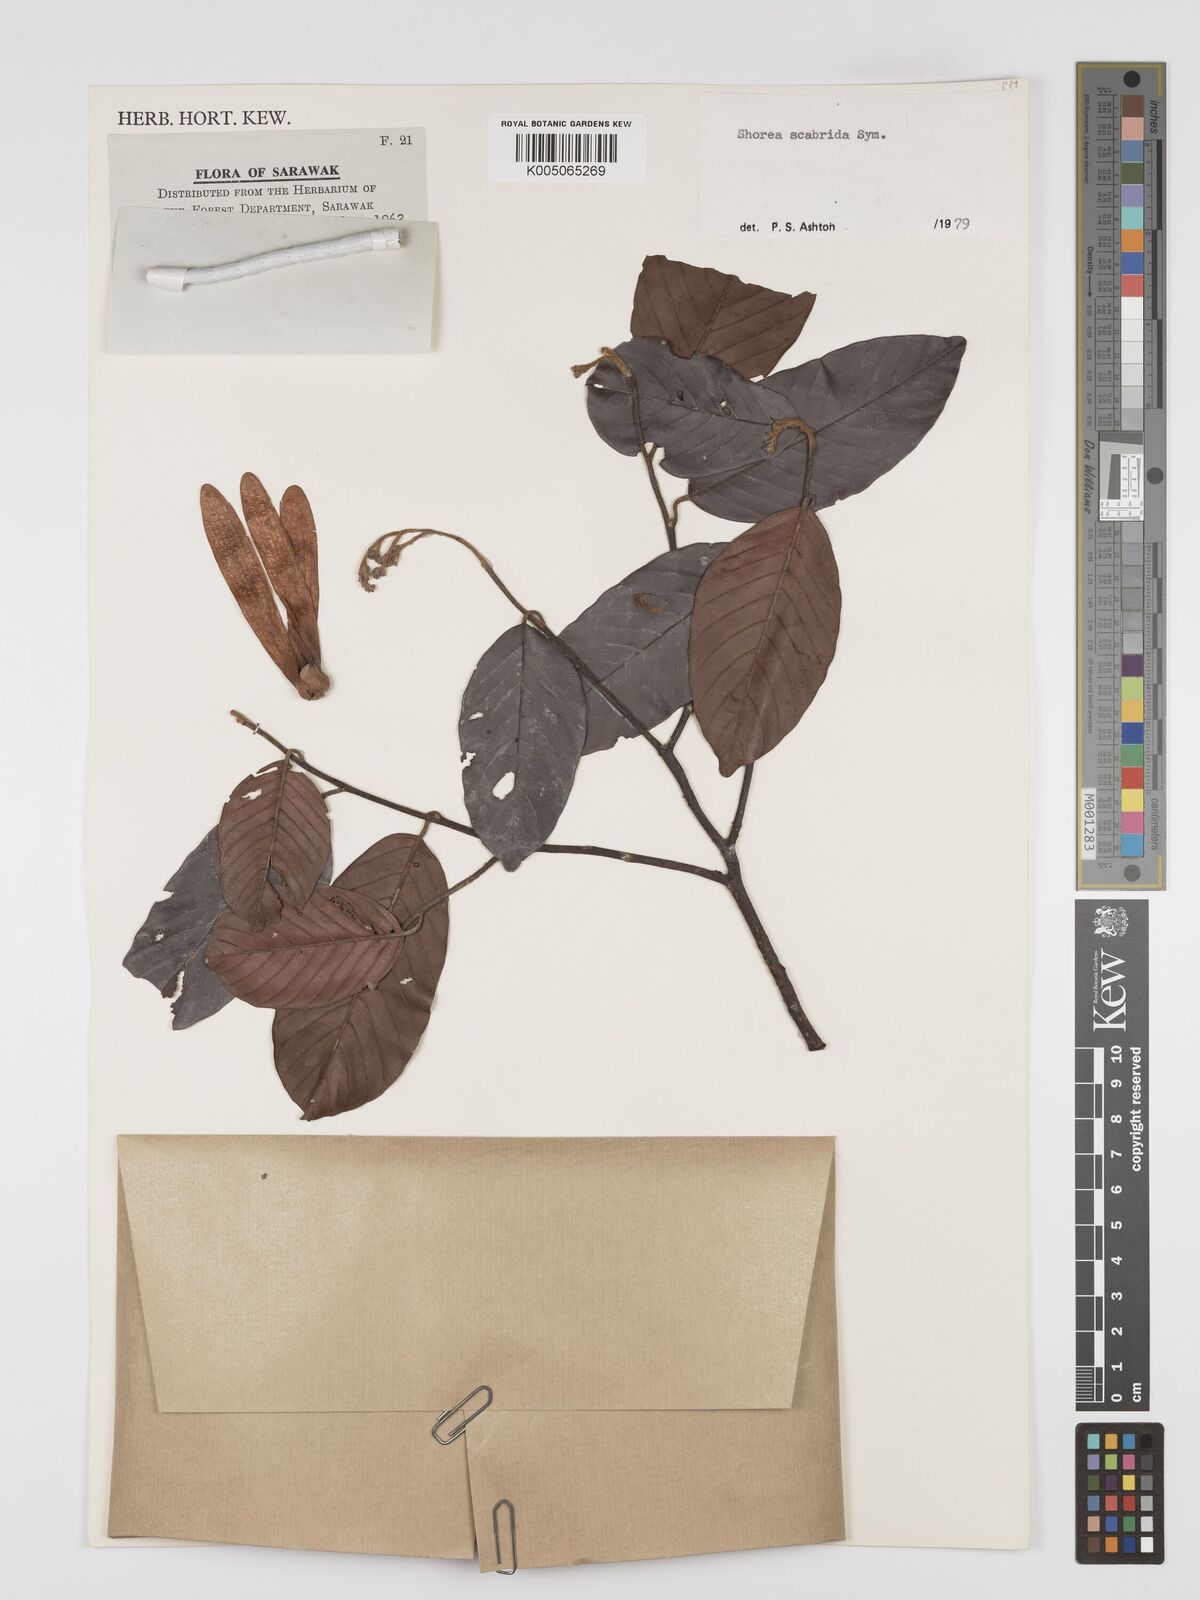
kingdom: Plantae
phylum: Tracheophyta
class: Magnoliopsida
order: Malvales
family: Dipterocarpaceae
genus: Shorea
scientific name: Shorea scabrida
